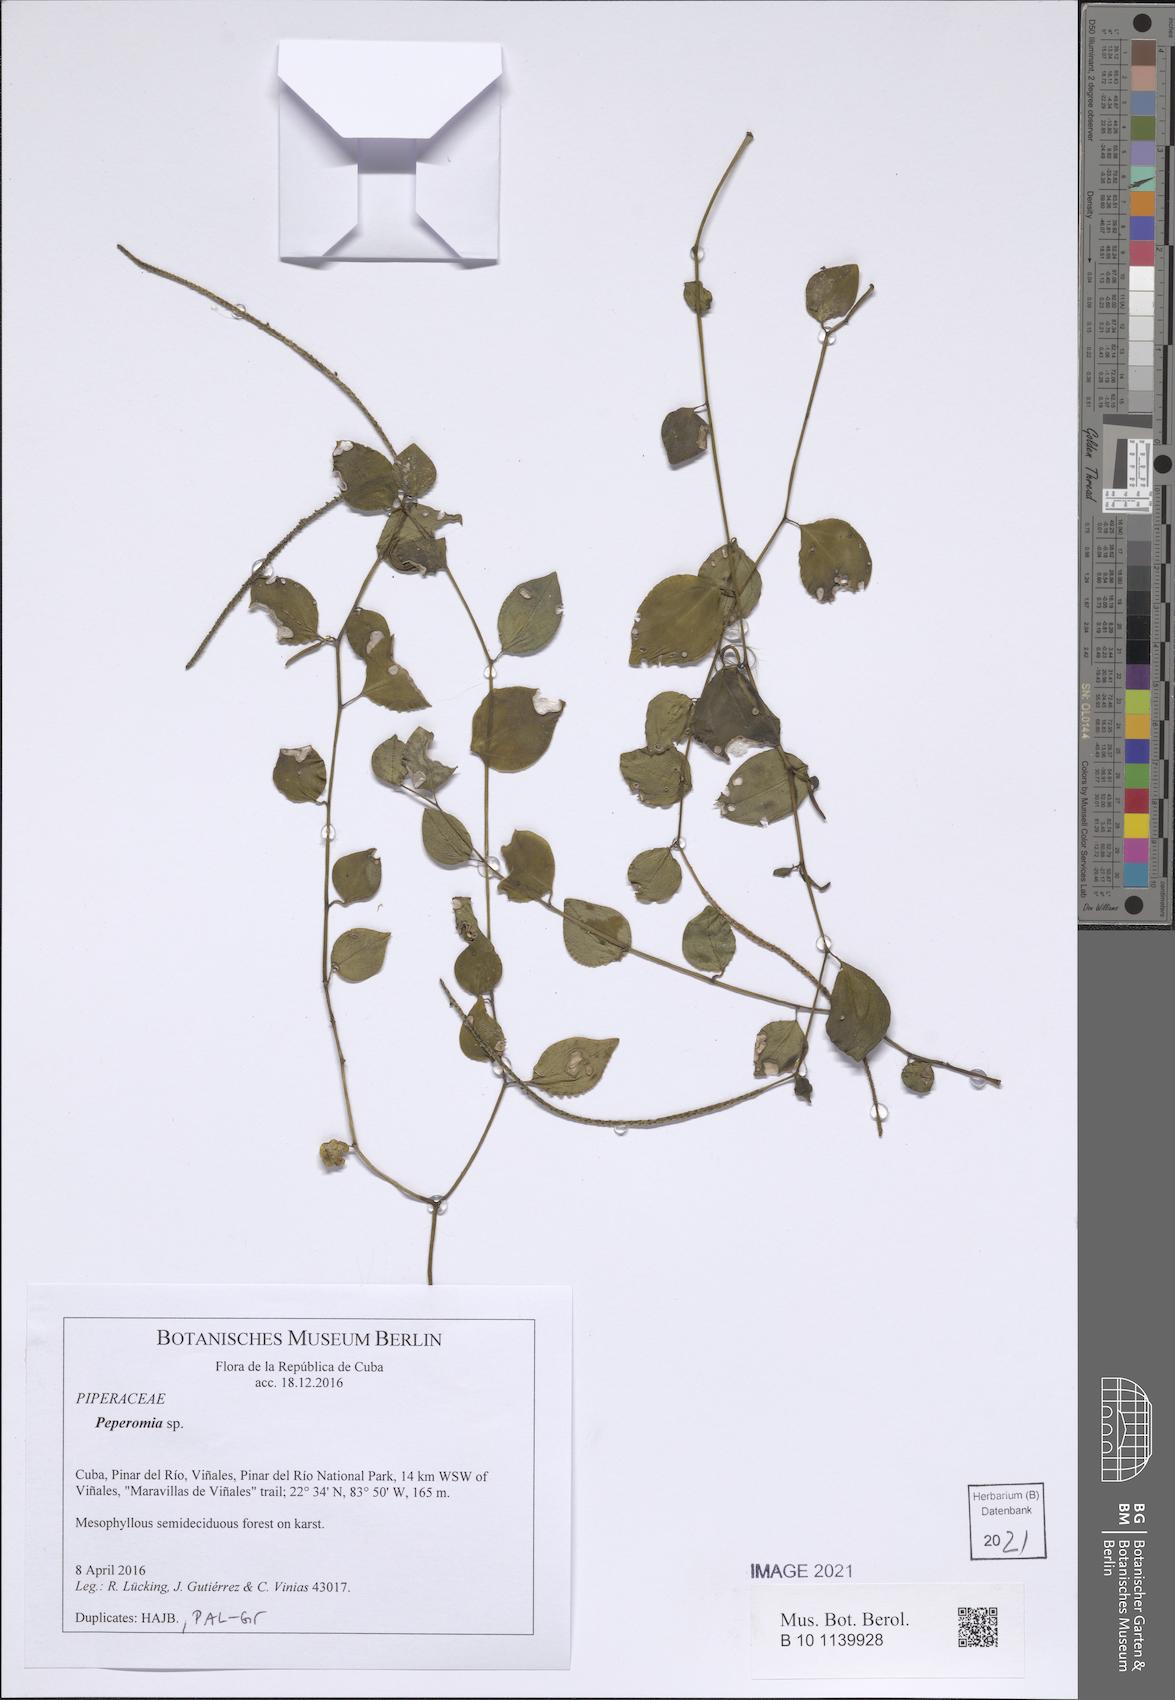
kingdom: Plantae
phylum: Tracheophyta
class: Magnoliopsida
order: Piperales
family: Piperaceae
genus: Peperomia
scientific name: Peperomia glabella
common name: Cypress peperomia
